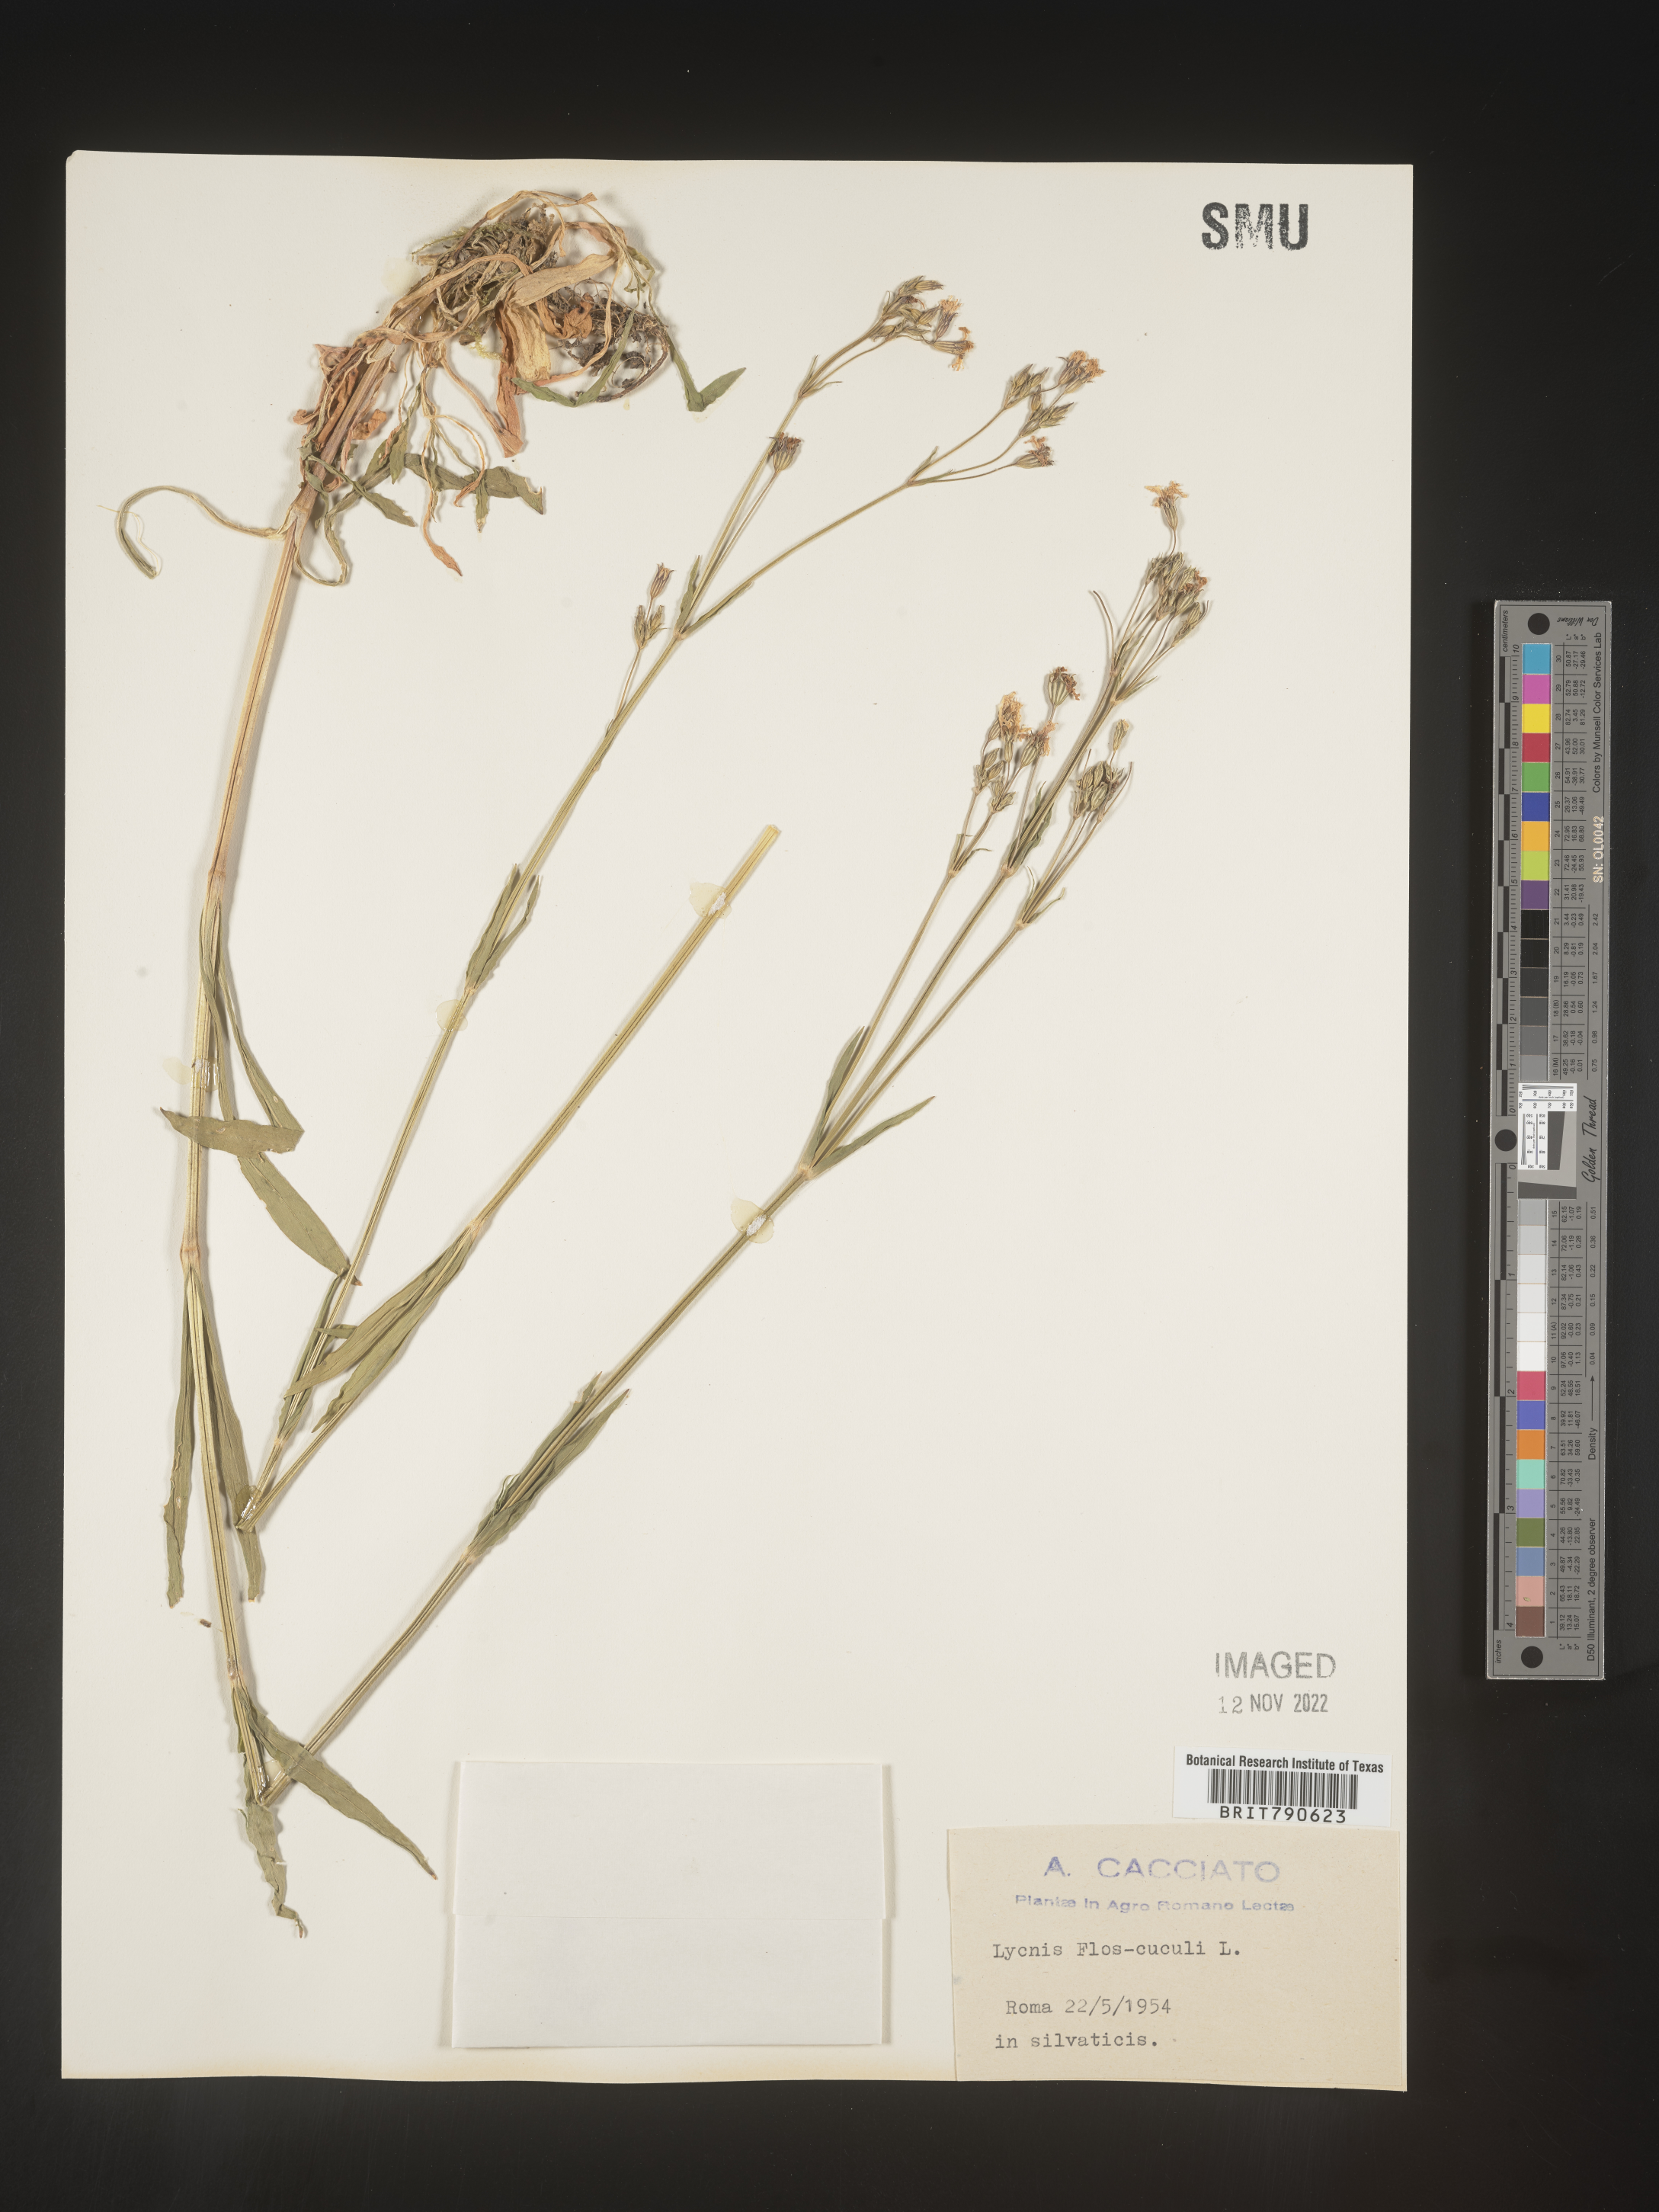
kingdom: Plantae
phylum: Tracheophyta
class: Magnoliopsida
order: Caryophyllales
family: Caryophyllaceae
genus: Silene
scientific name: Silene
